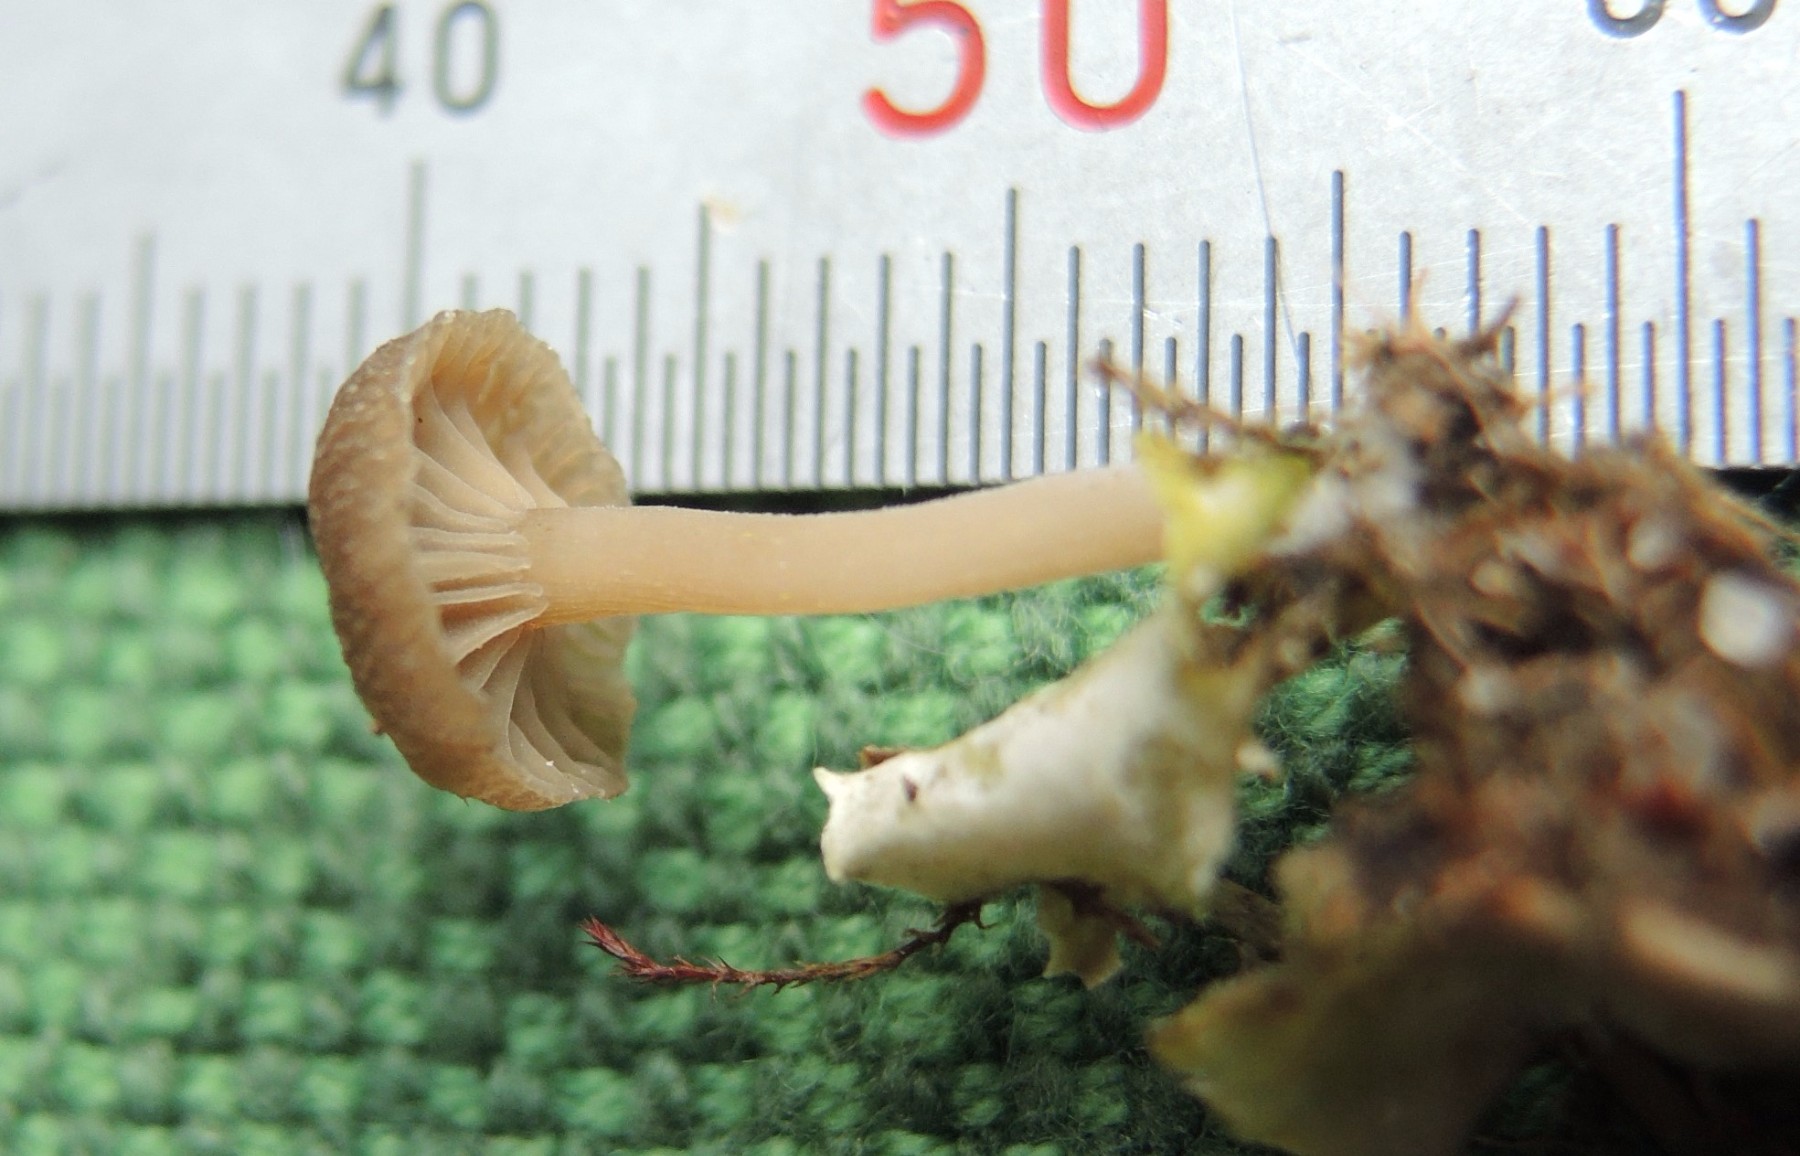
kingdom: Fungi
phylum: Basidiomycota
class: Agaricomycetes
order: Agaricales
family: Hygrophoraceae
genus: Arrhenia
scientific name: Arrhenia peltigerina
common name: skjoldlav-fontænehat
